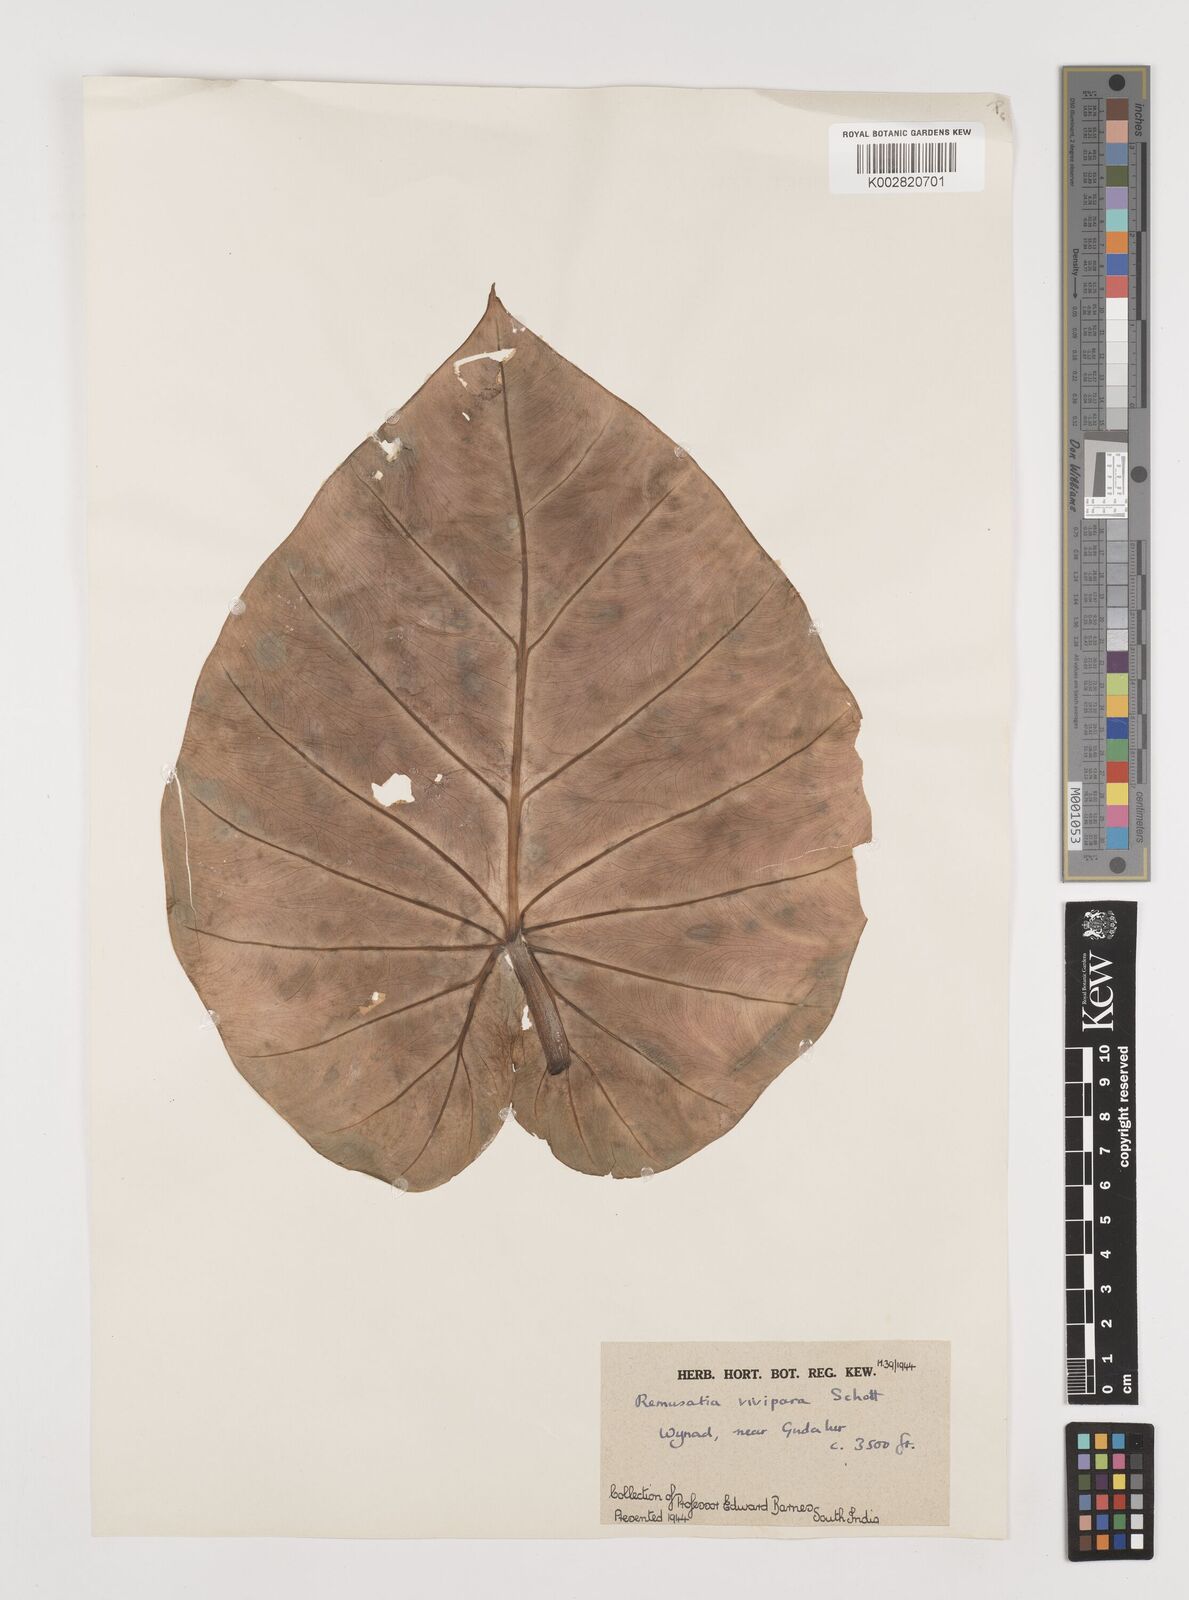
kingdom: Plantae
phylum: Tracheophyta
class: Liliopsida
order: Alismatales
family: Araceae
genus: Remusatia
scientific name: Remusatia vivipara
